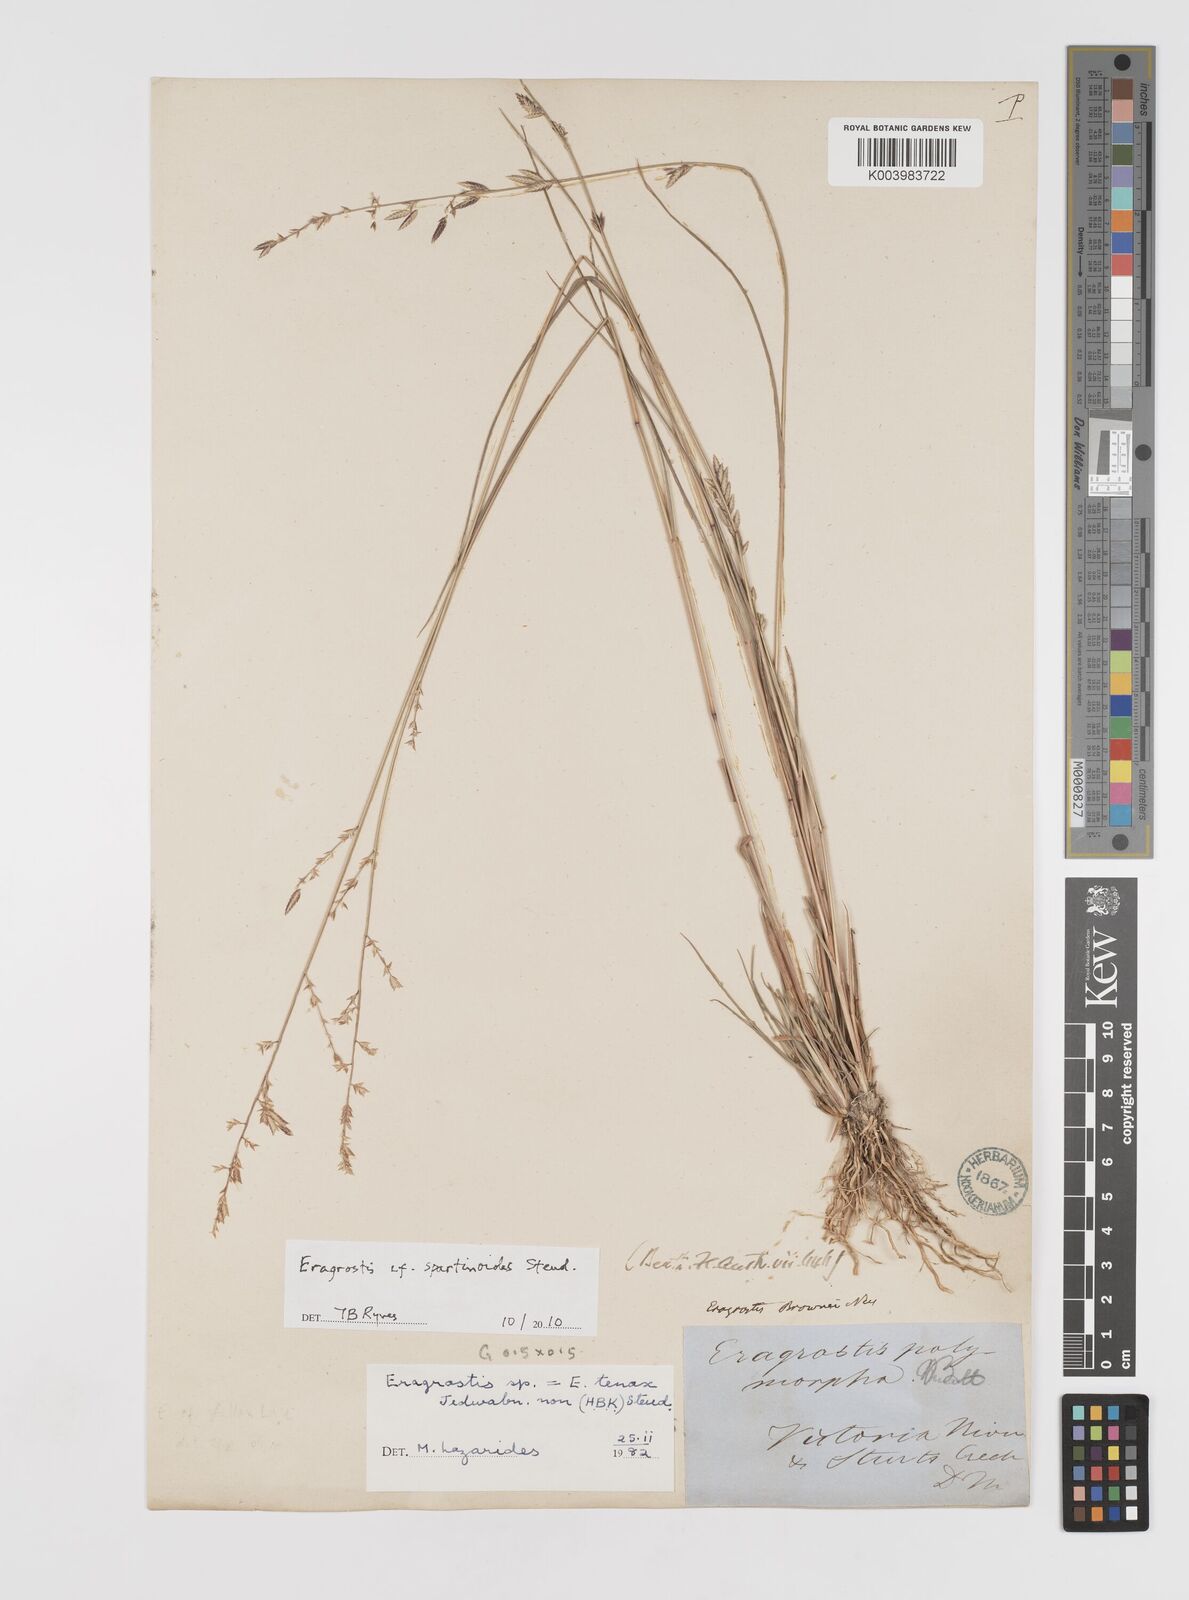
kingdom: Plantae
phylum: Tracheophyta
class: Liliopsida
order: Poales
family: Poaceae
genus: Eragrostis
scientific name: Eragrostis brownii
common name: Lovegrass
